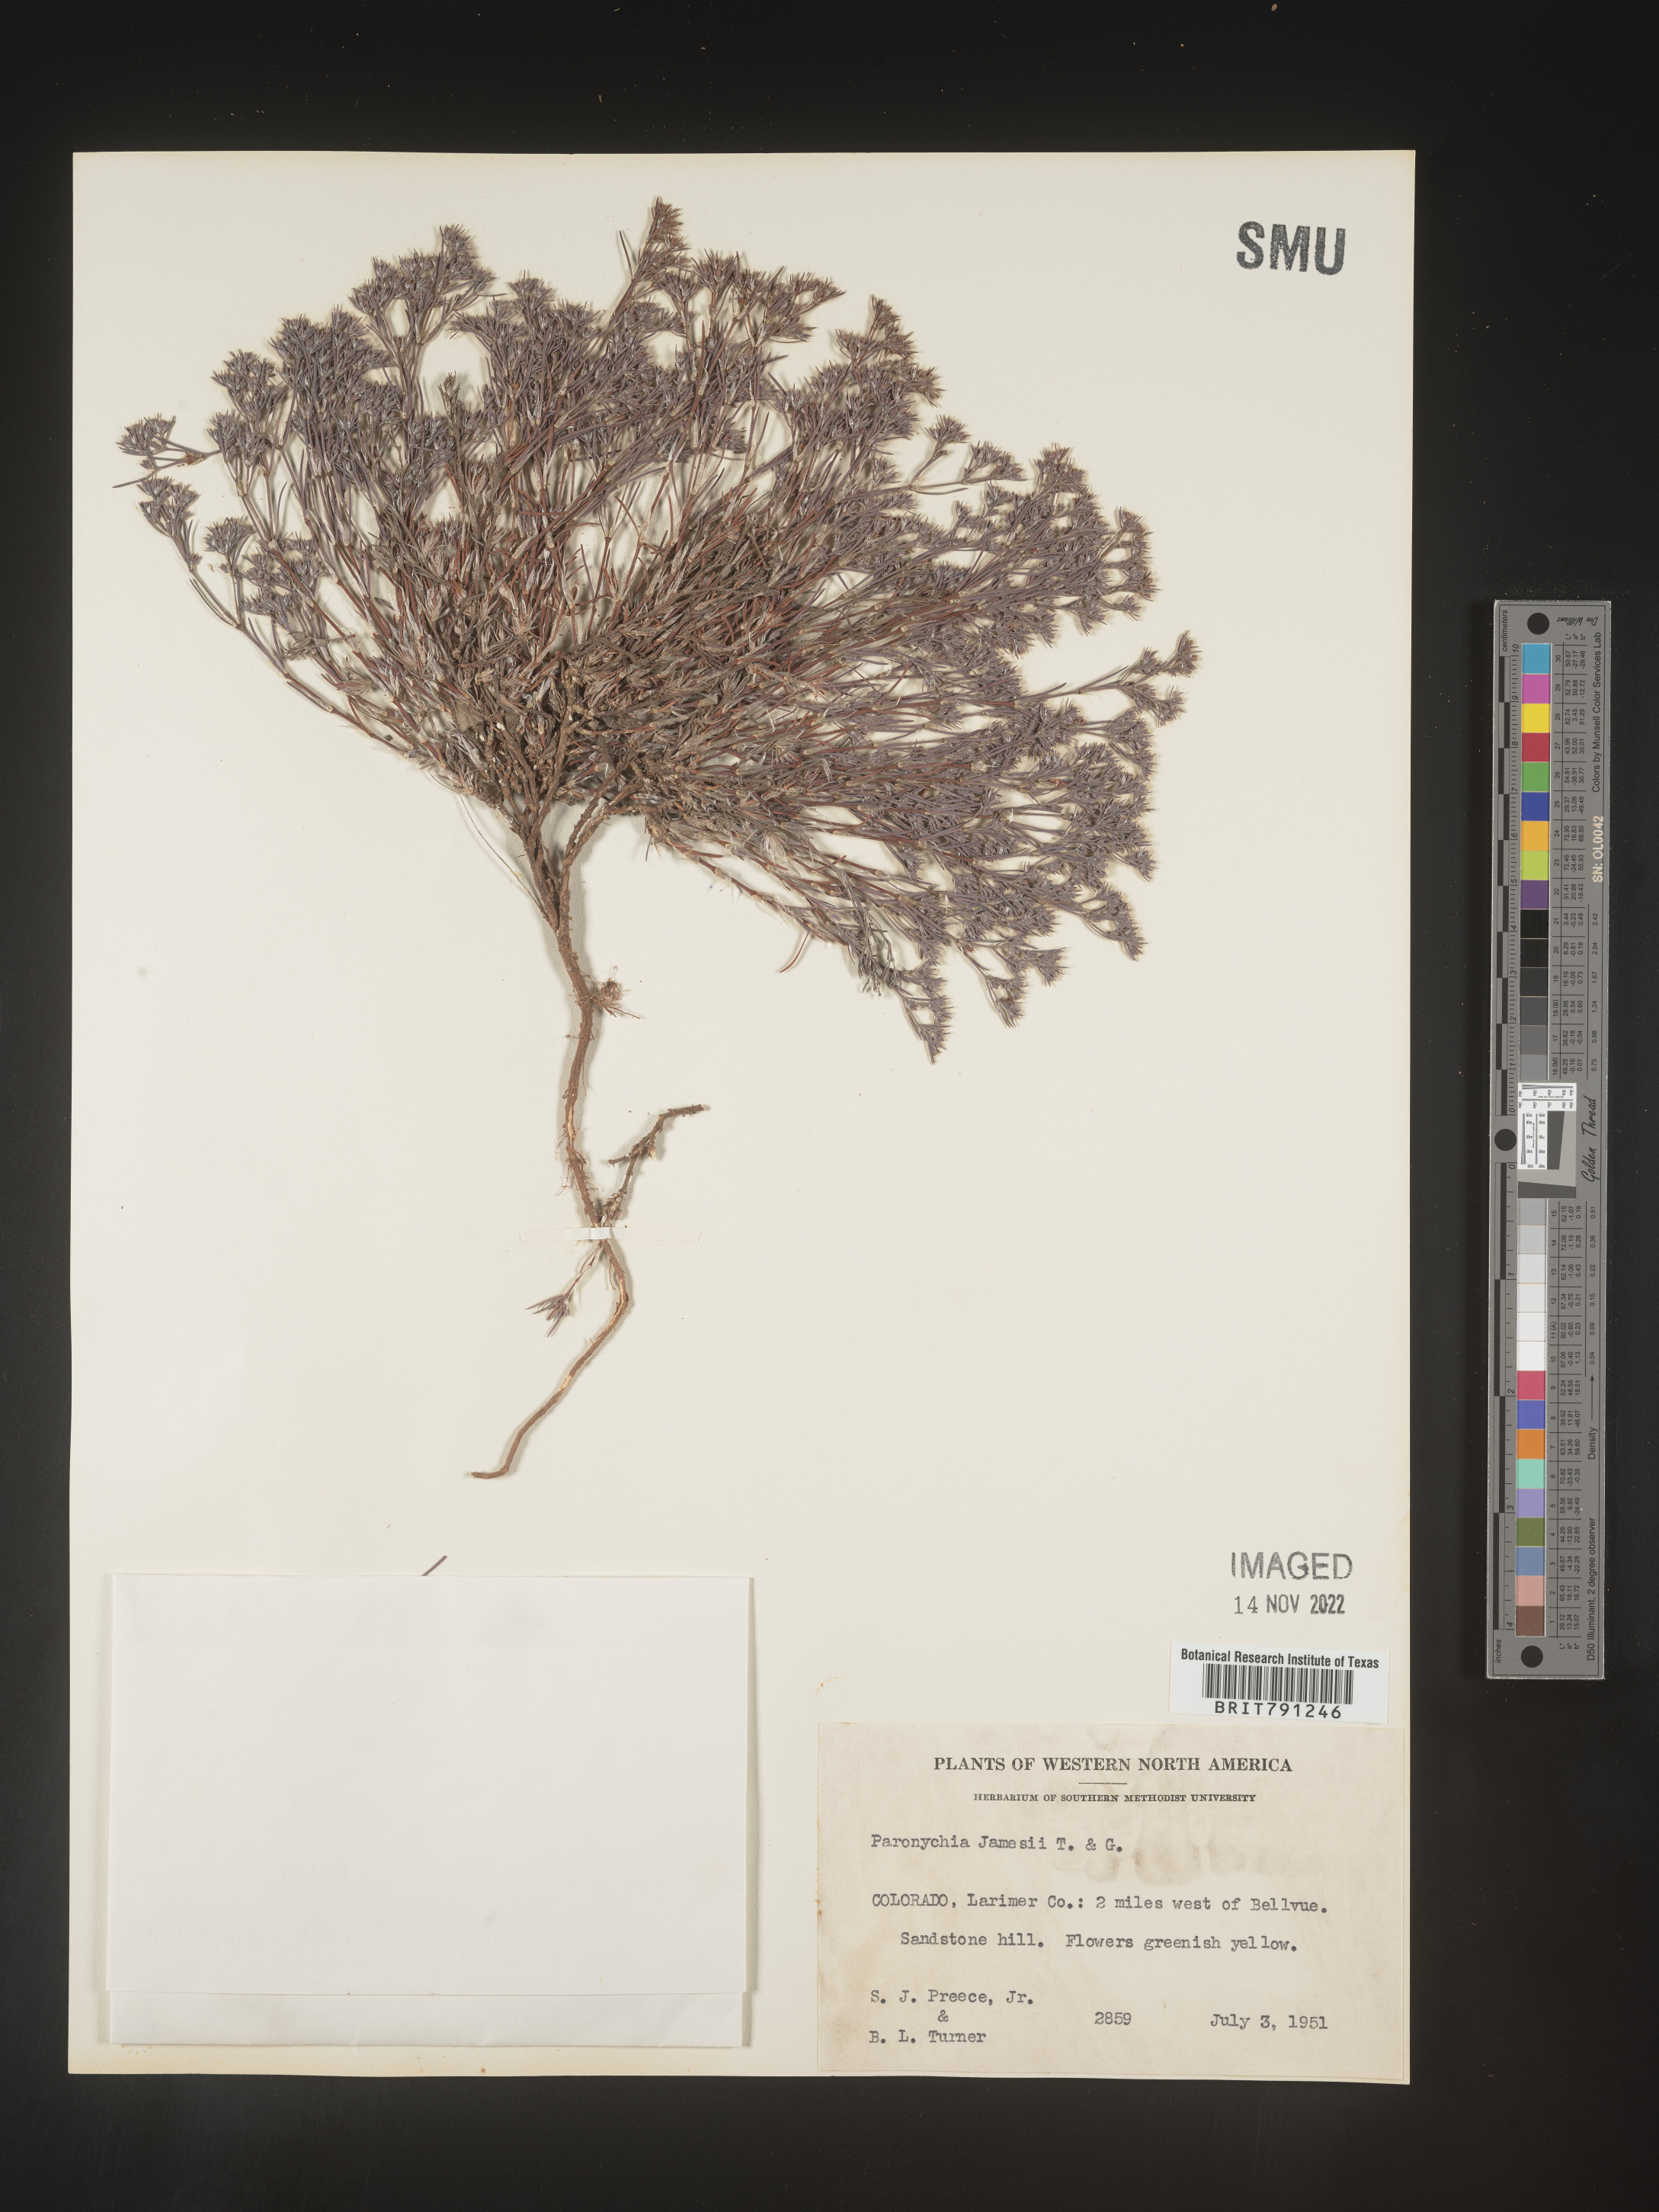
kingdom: Plantae
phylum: Tracheophyta
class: Magnoliopsida
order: Caryophyllales
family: Caryophyllaceae
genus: Paronychia
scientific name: Paronychia jamesii
